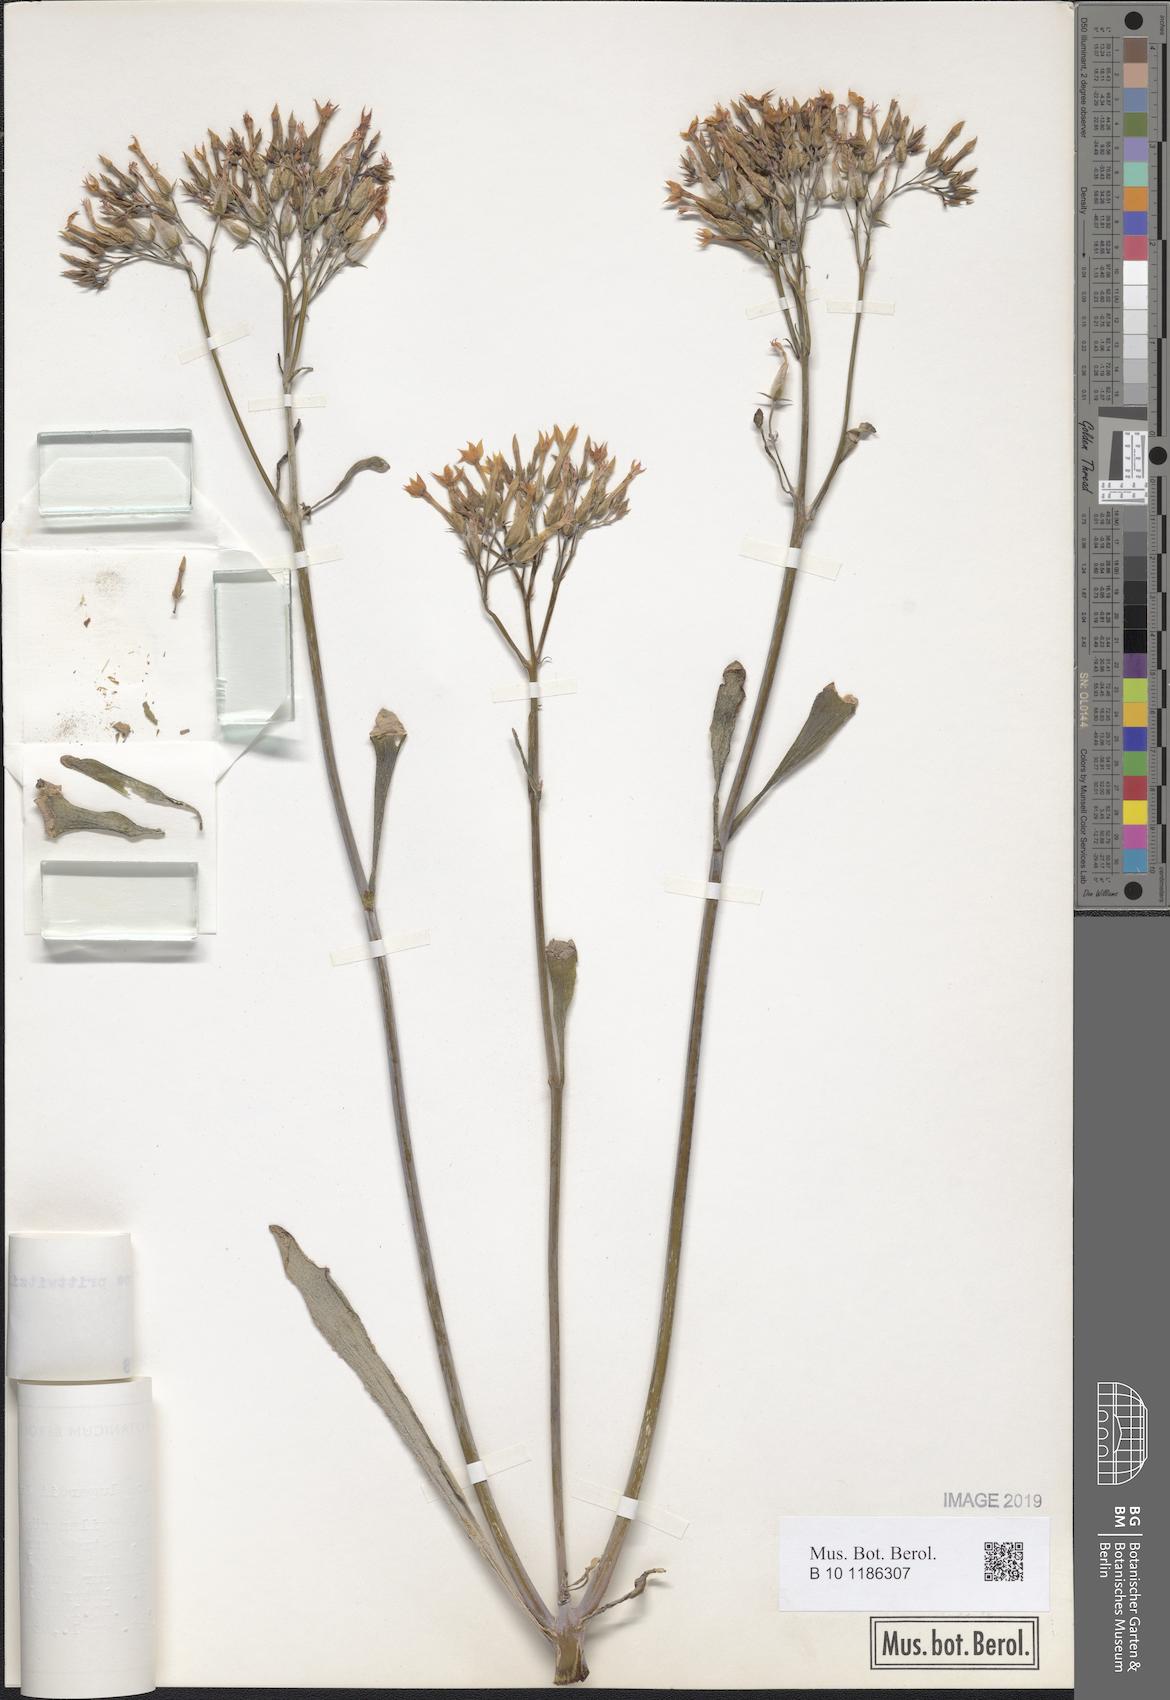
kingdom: Plantae
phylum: Tracheophyta
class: Magnoliopsida
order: Saxifragales
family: Crassulaceae
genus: Kalanchoe
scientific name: Kalanchoe prittwitzii
